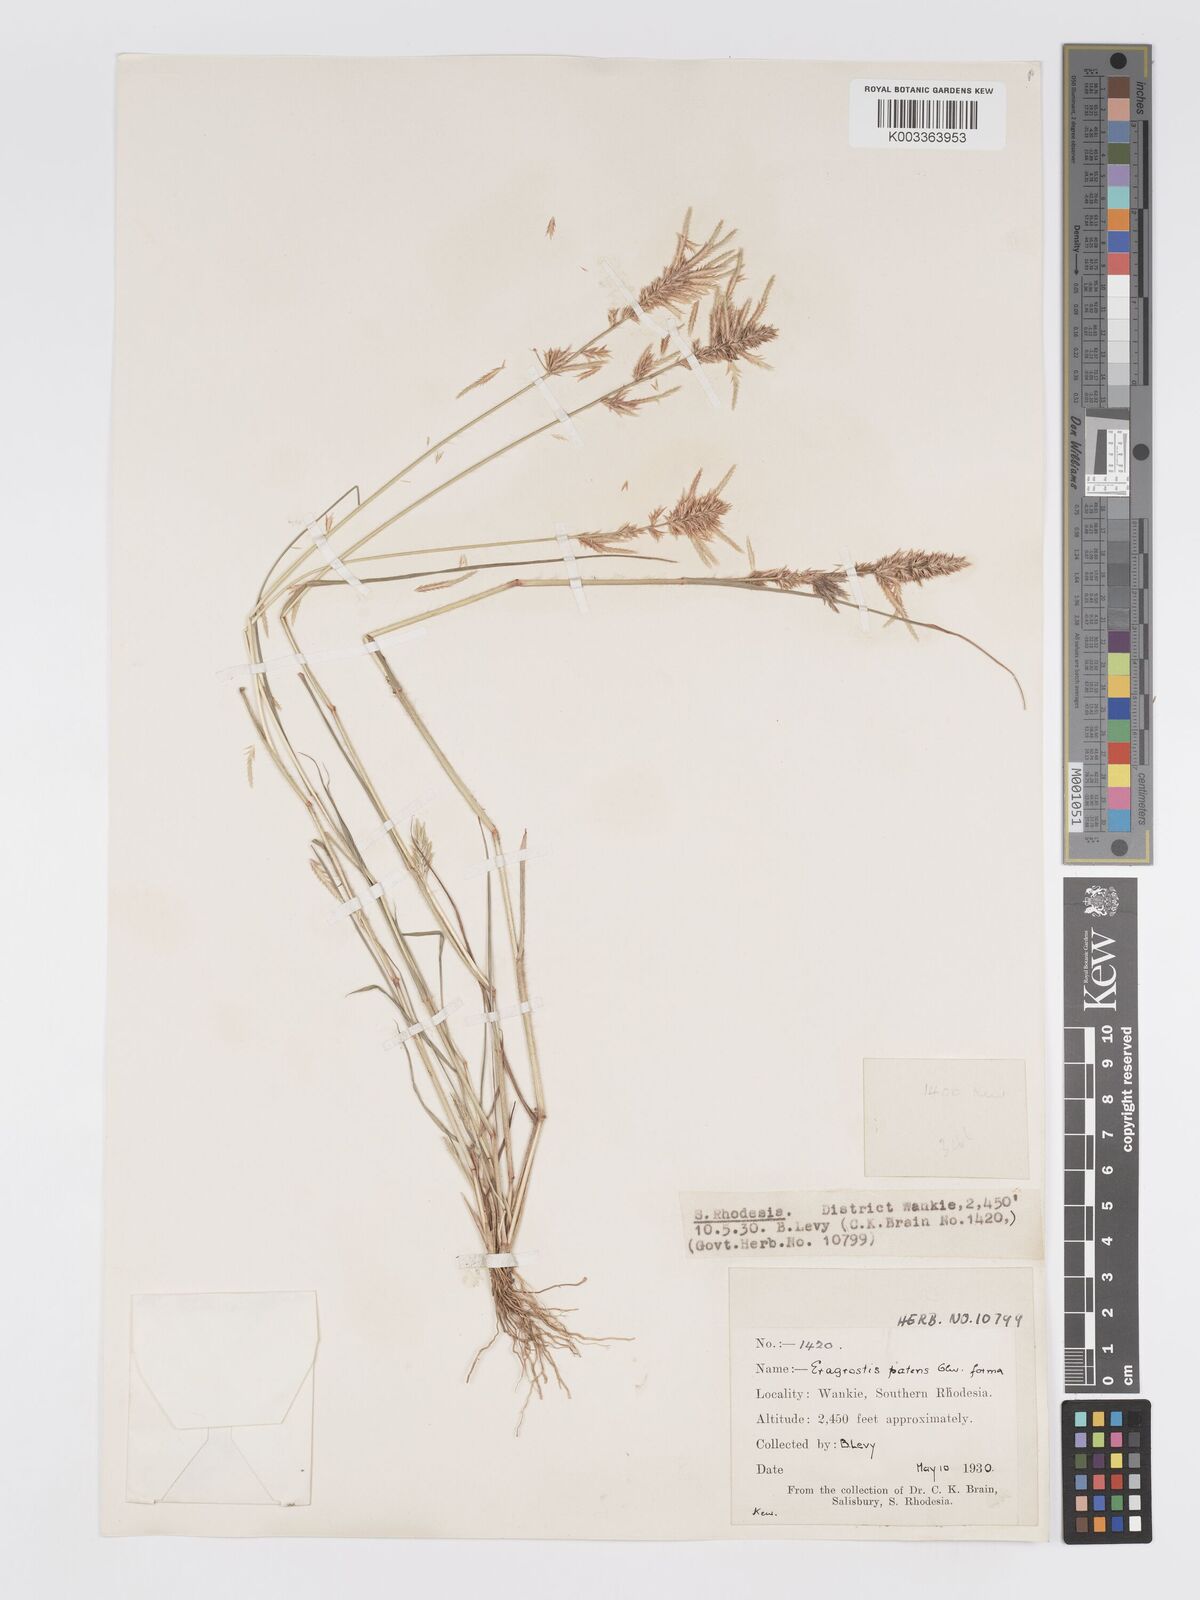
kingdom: Plantae
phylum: Tracheophyta
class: Liliopsida
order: Poales
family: Poaceae
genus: Eragrostis
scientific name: Eragrostis patens
